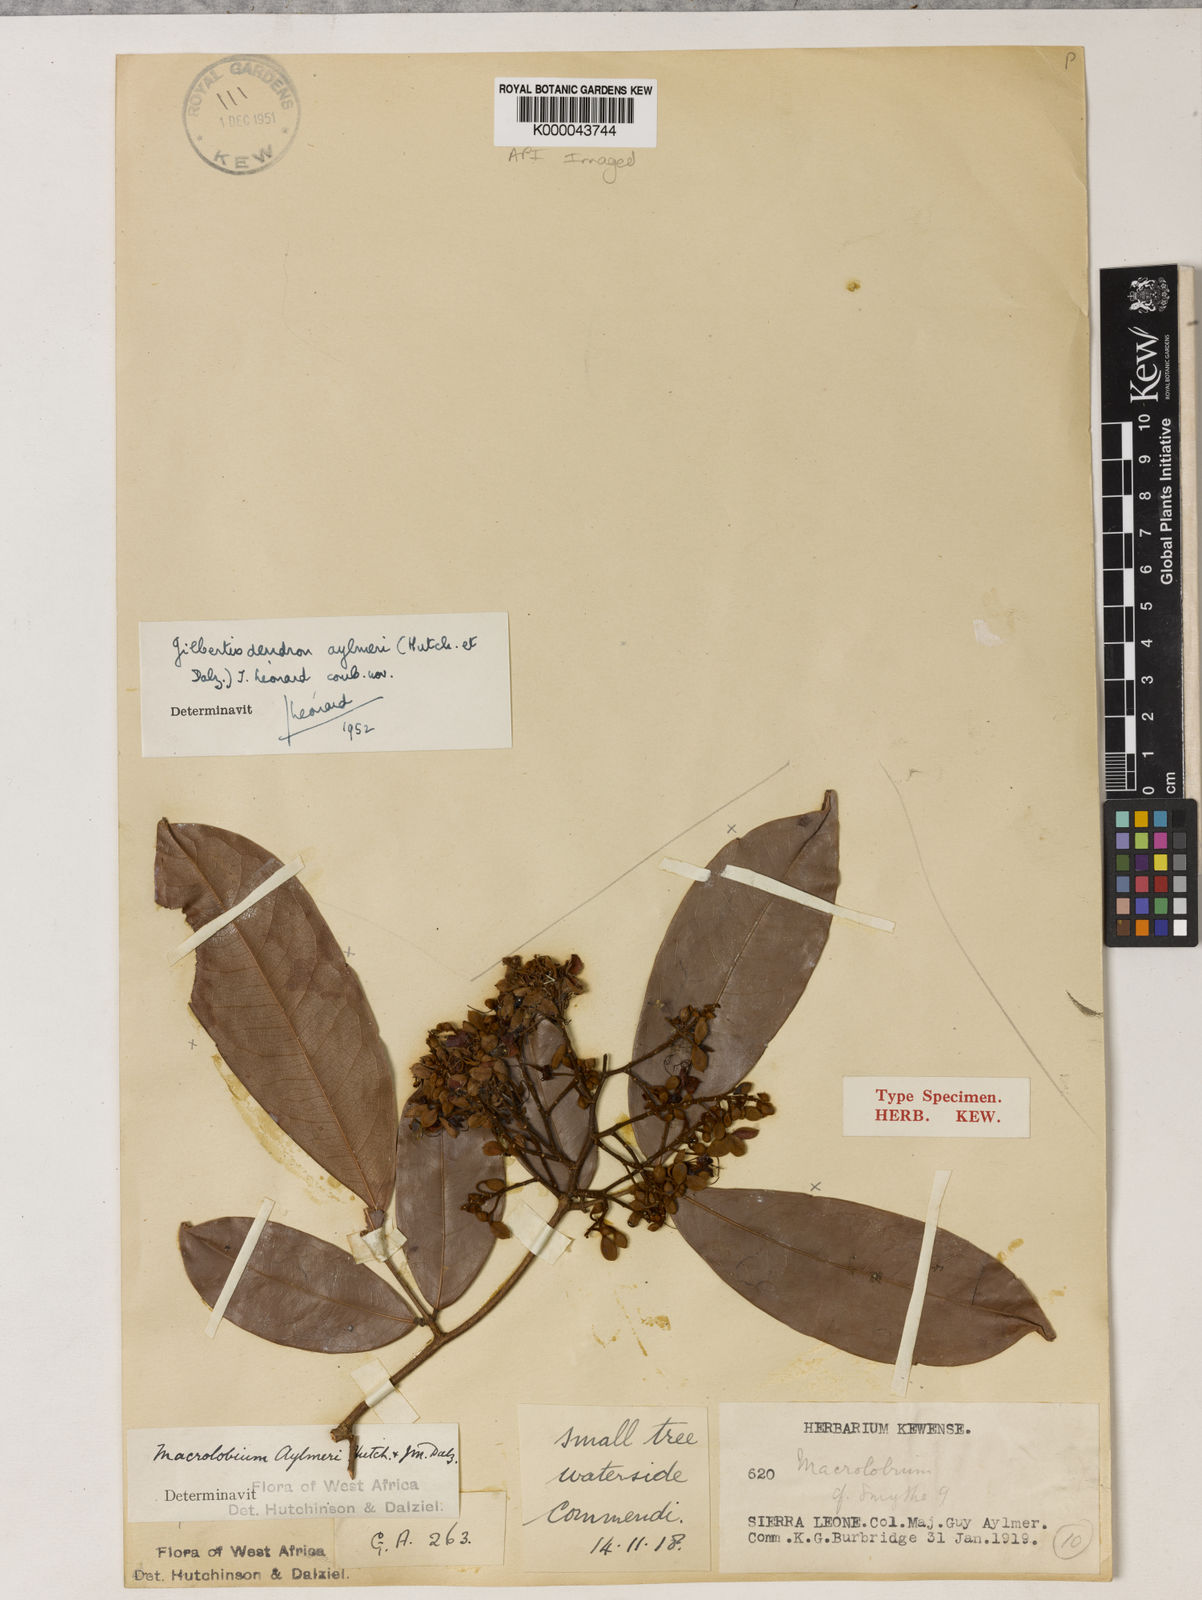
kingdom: Plantae
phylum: Tracheophyta
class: Magnoliopsida
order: Fabales
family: Fabaceae
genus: Gilbertiodendron
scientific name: Gilbertiodendron
